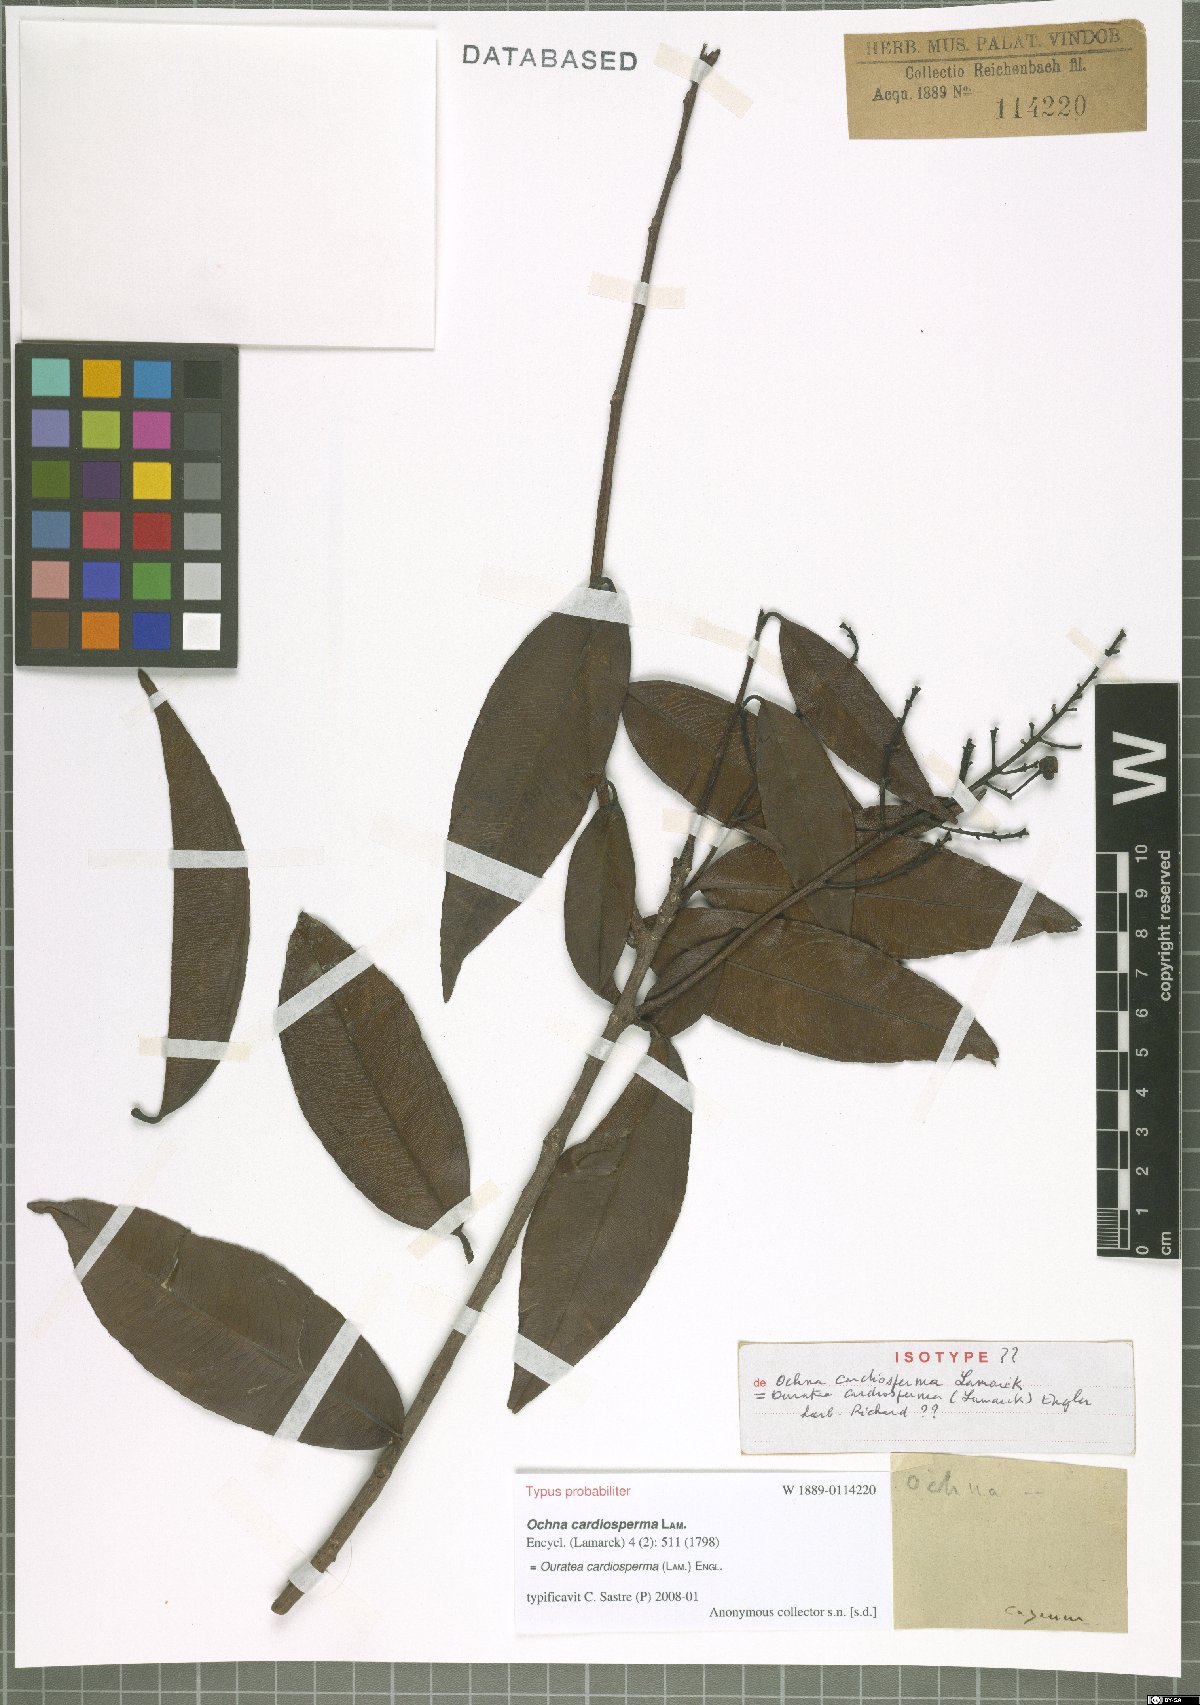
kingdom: Plantae
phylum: Tracheophyta
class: Magnoliopsida
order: Malpighiales
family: Ochnaceae
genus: Ouratea
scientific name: Ouratea cardiosperma
